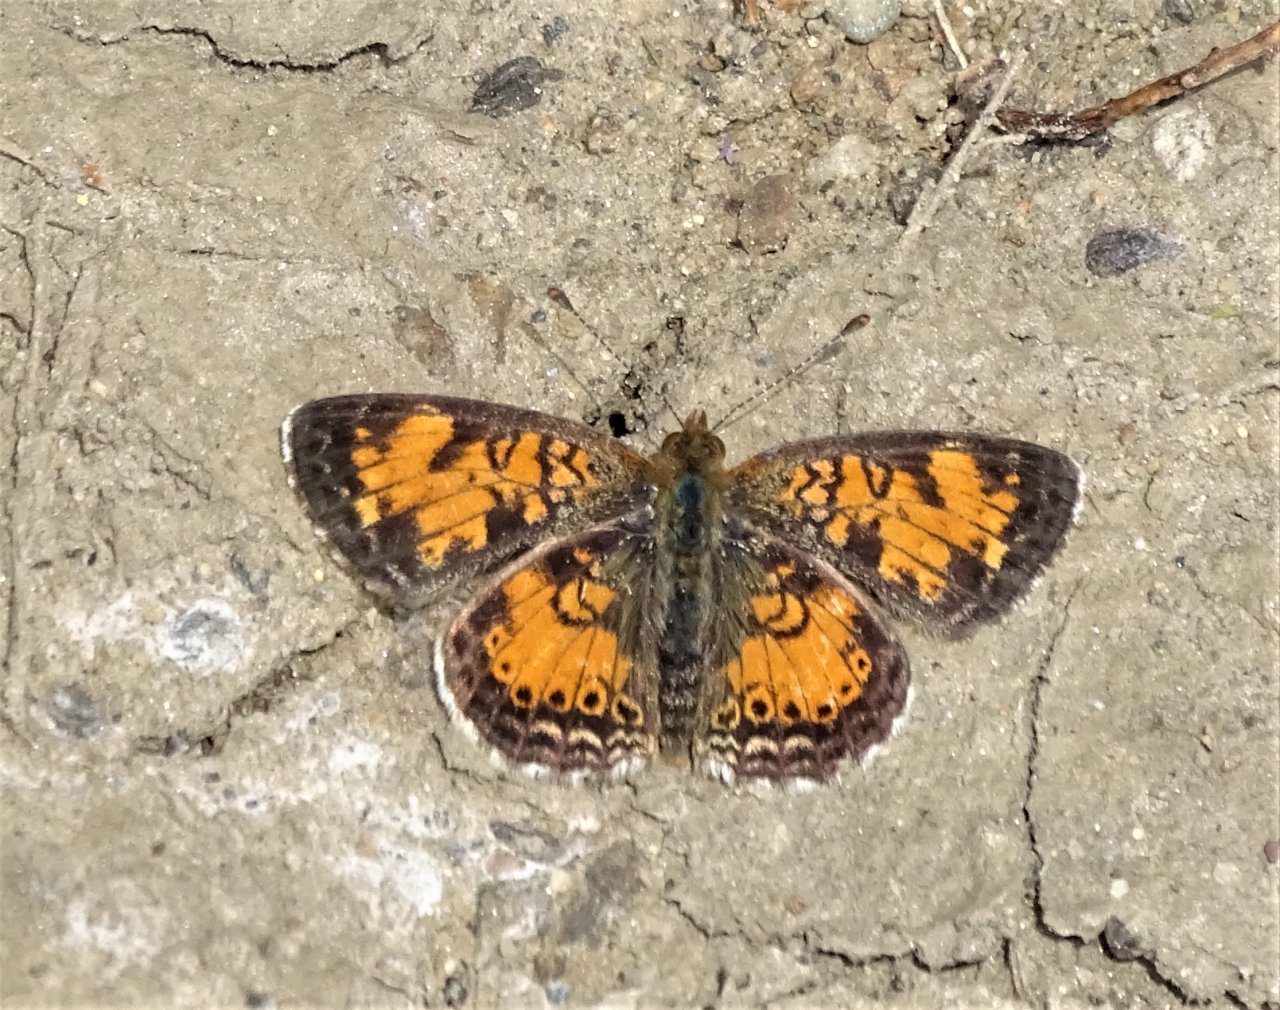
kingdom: Animalia
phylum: Arthropoda
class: Insecta
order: Lepidoptera
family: Nymphalidae
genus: Phyciodes
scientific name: Phyciodes
